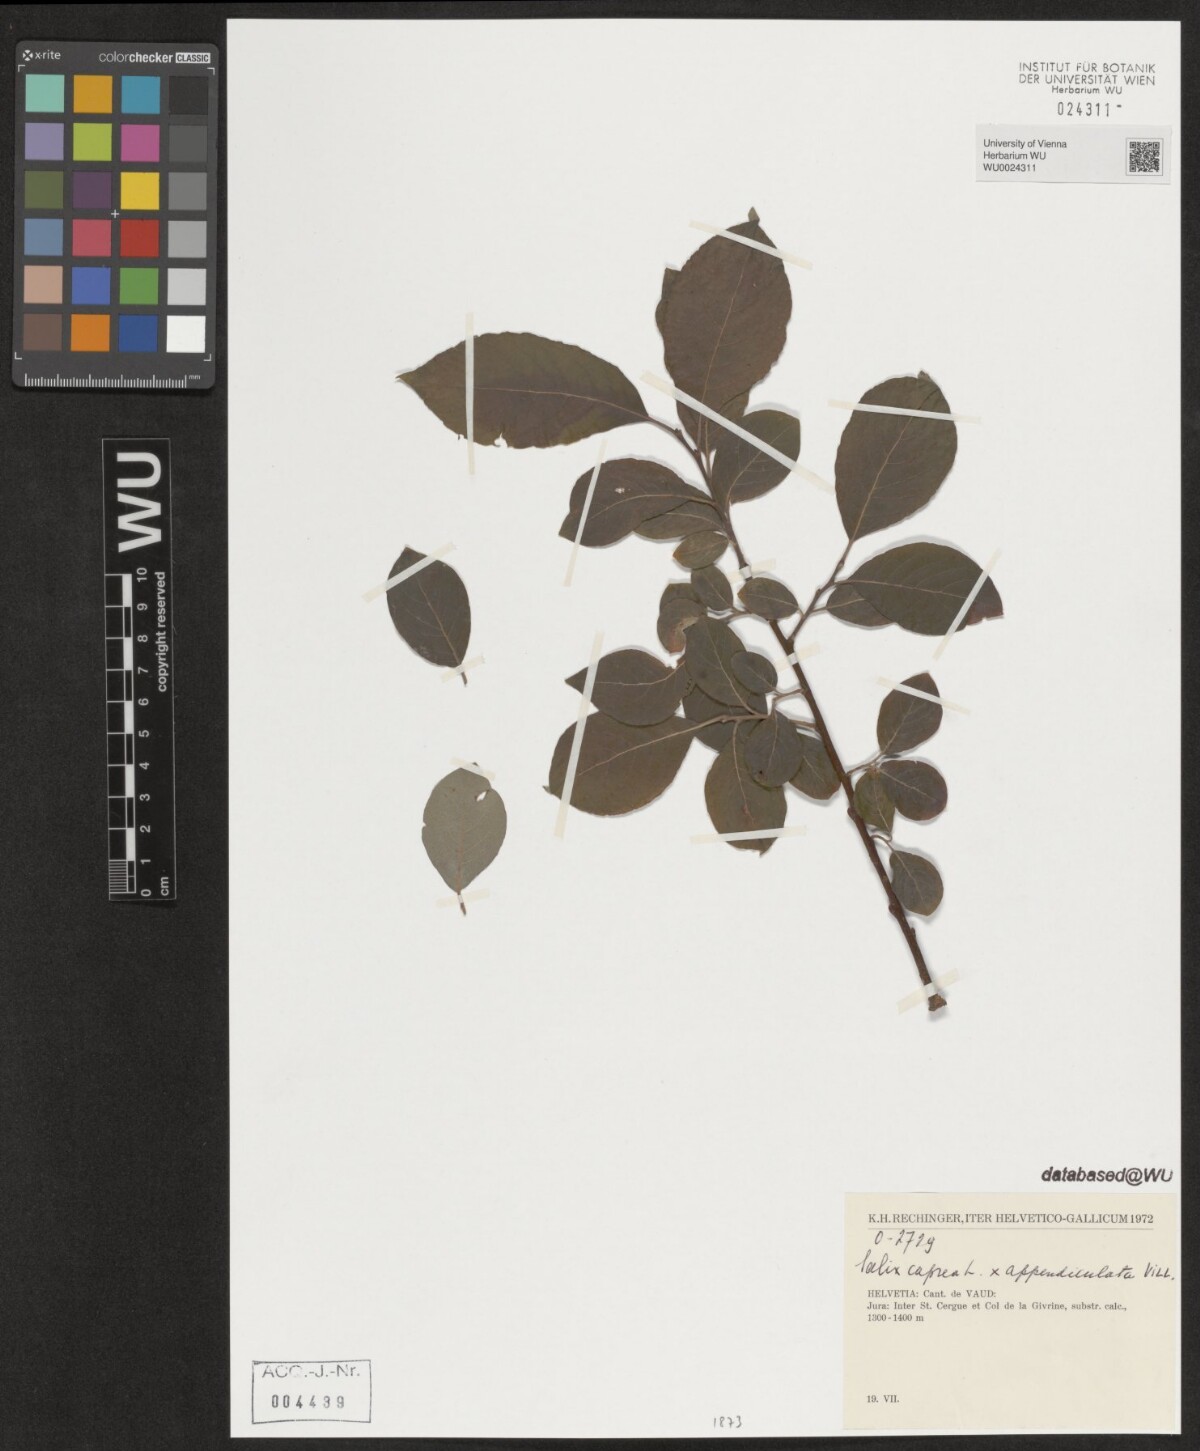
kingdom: Plantae
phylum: Tracheophyta
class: Magnoliopsida
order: Malpighiales
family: Salicaceae
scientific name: Salicaceae
